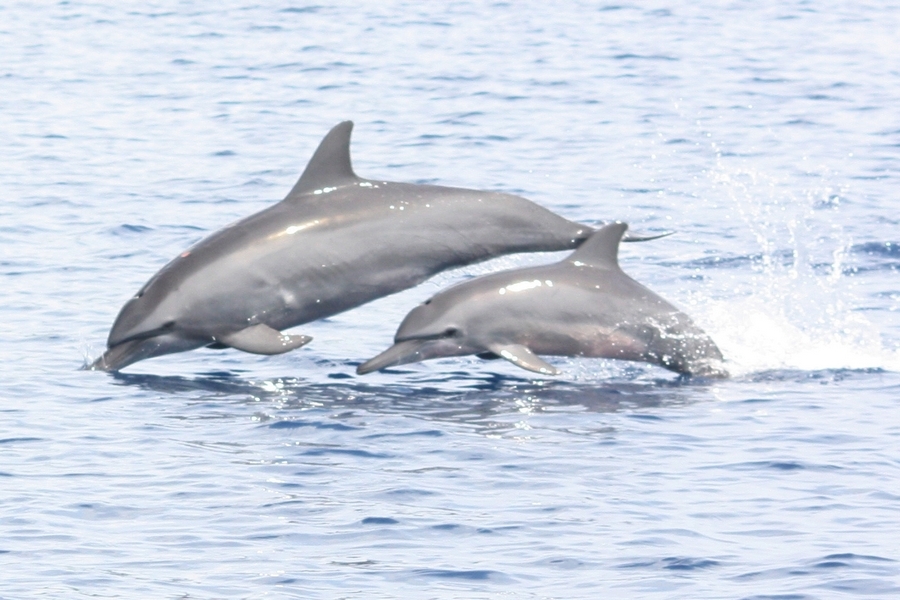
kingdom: Animalia
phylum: Chordata
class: Mammalia
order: Cetacea
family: Delphinidae
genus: Stenella
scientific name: Stenella longirostris
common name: Spinner Dolphin
